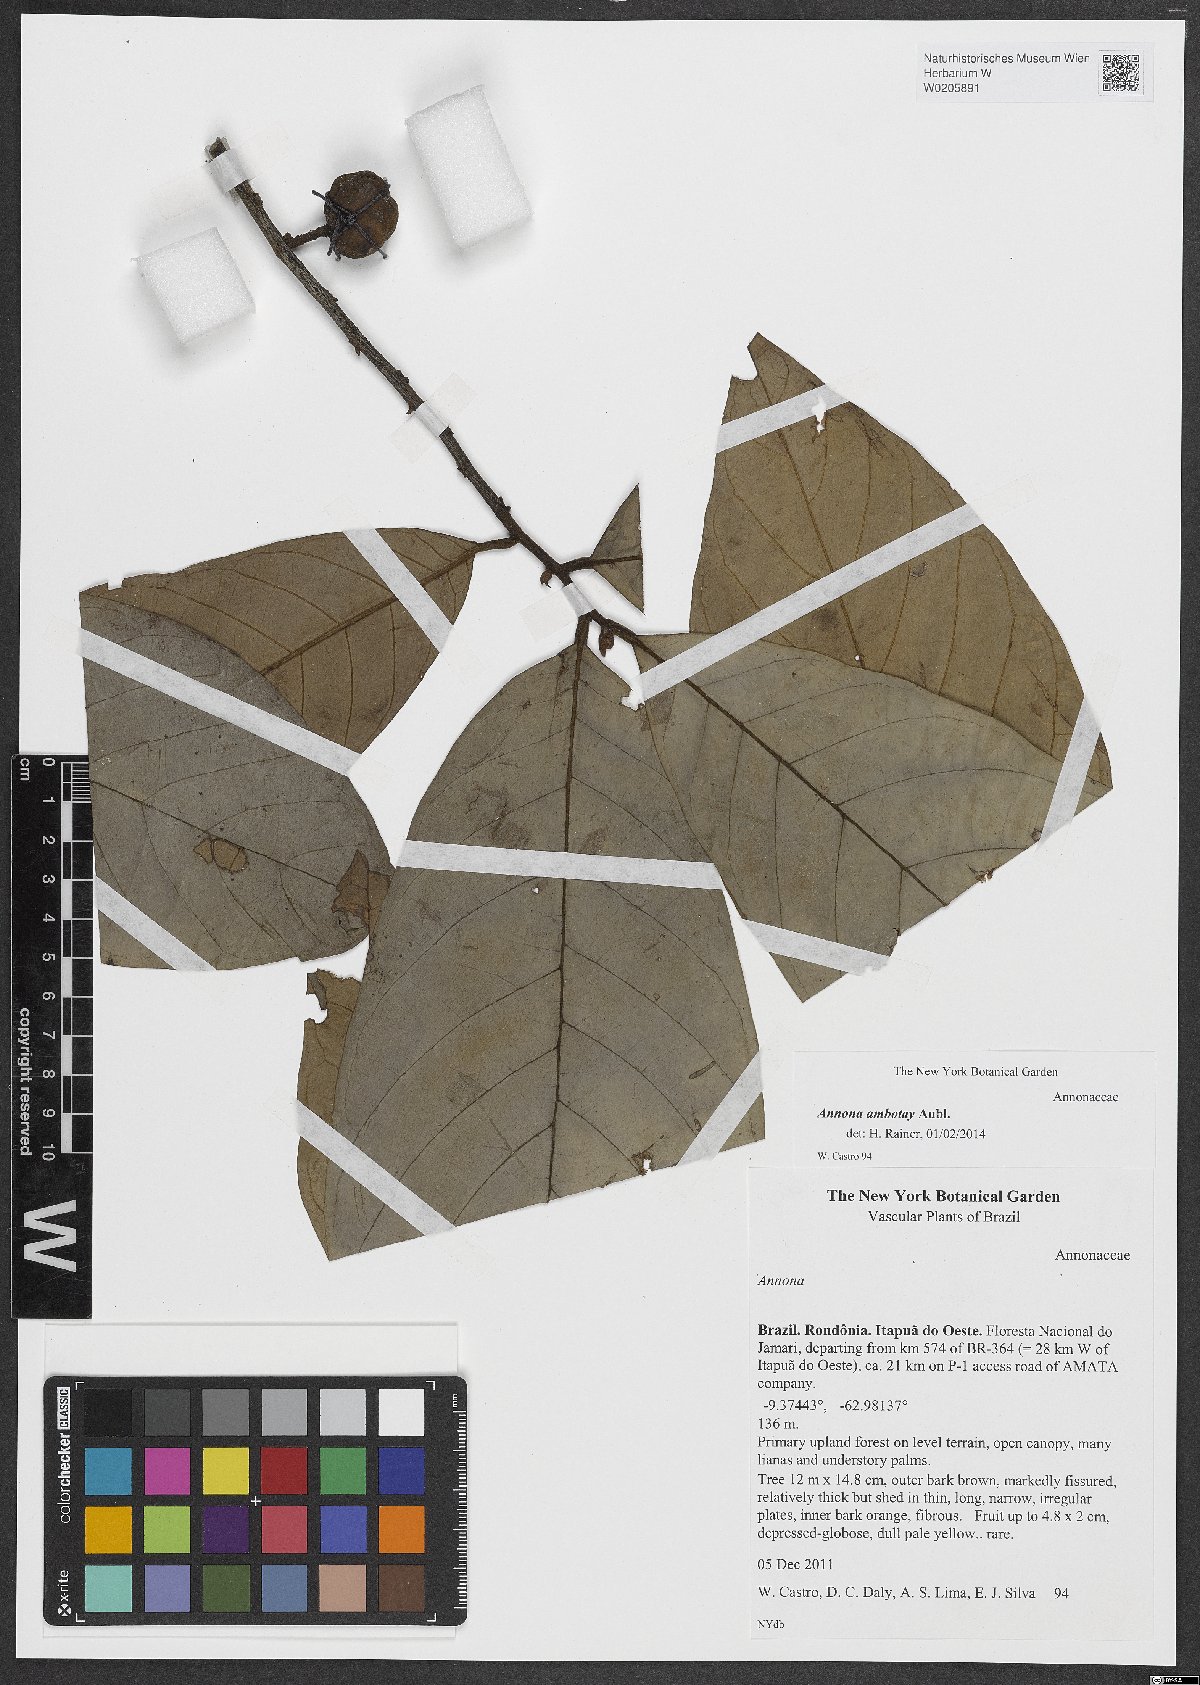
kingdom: Plantae
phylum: Tracheophyta
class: Magnoliopsida
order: Magnoliales
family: Annonaceae
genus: Annona
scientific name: Annona ambotay
